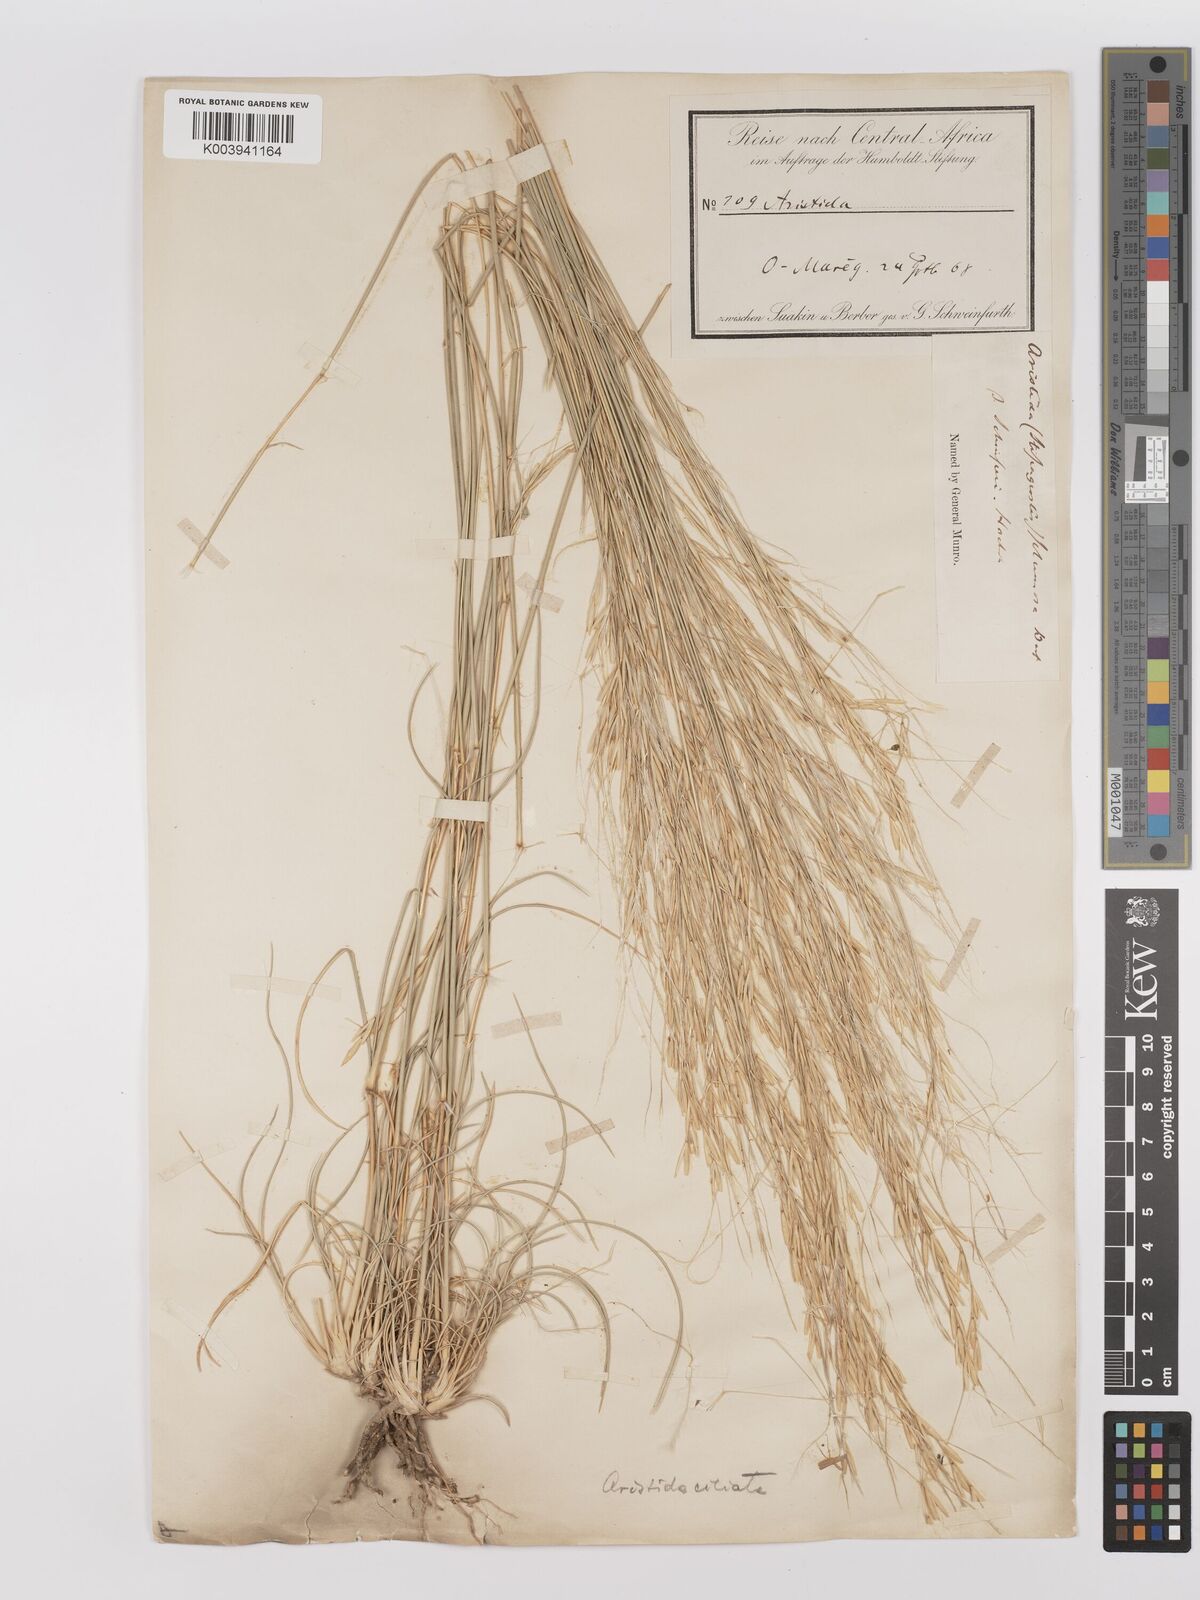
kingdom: Plantae
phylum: Tracheophyta
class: Liliopsida
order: Poales
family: Poaceae
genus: Stipagrostis
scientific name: Stipagrostis ciliata
